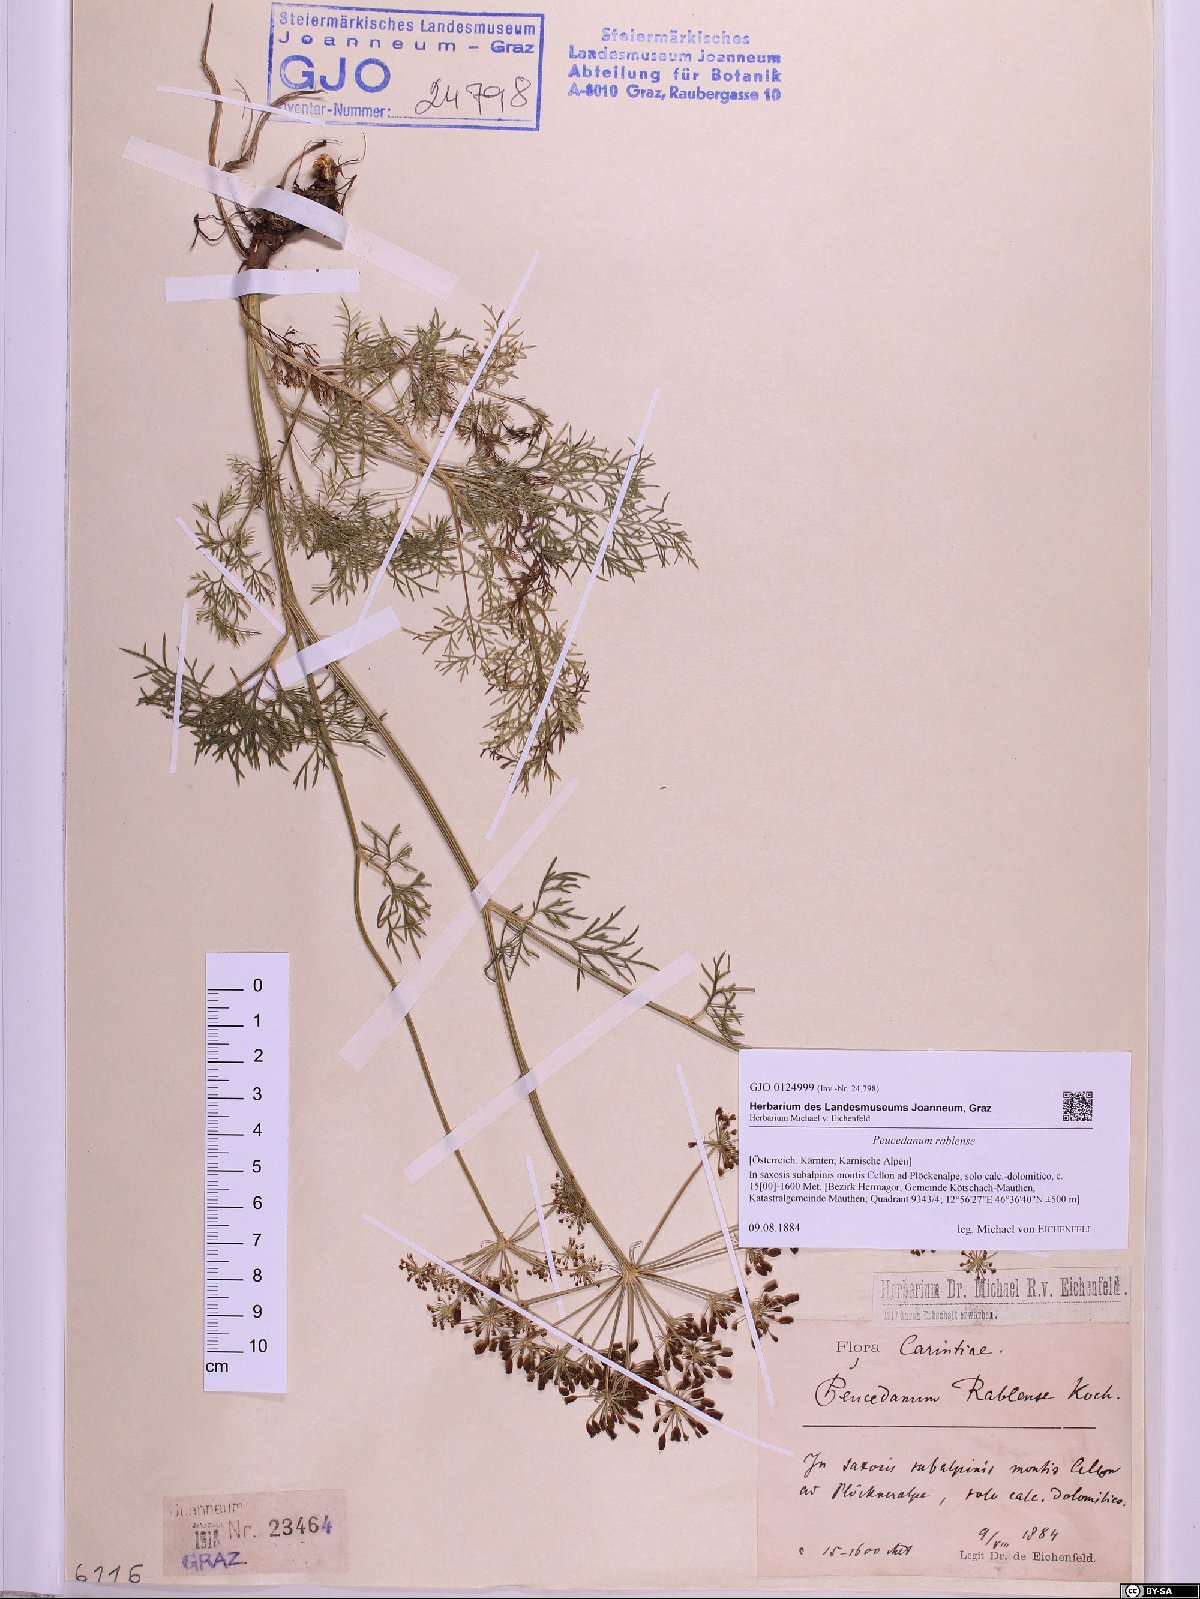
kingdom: Plantae
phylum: Tracheophyta
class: Magnoliopsida
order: Apiales
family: Apiaceae
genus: Peucedanum
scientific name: Peucedanum rablense
